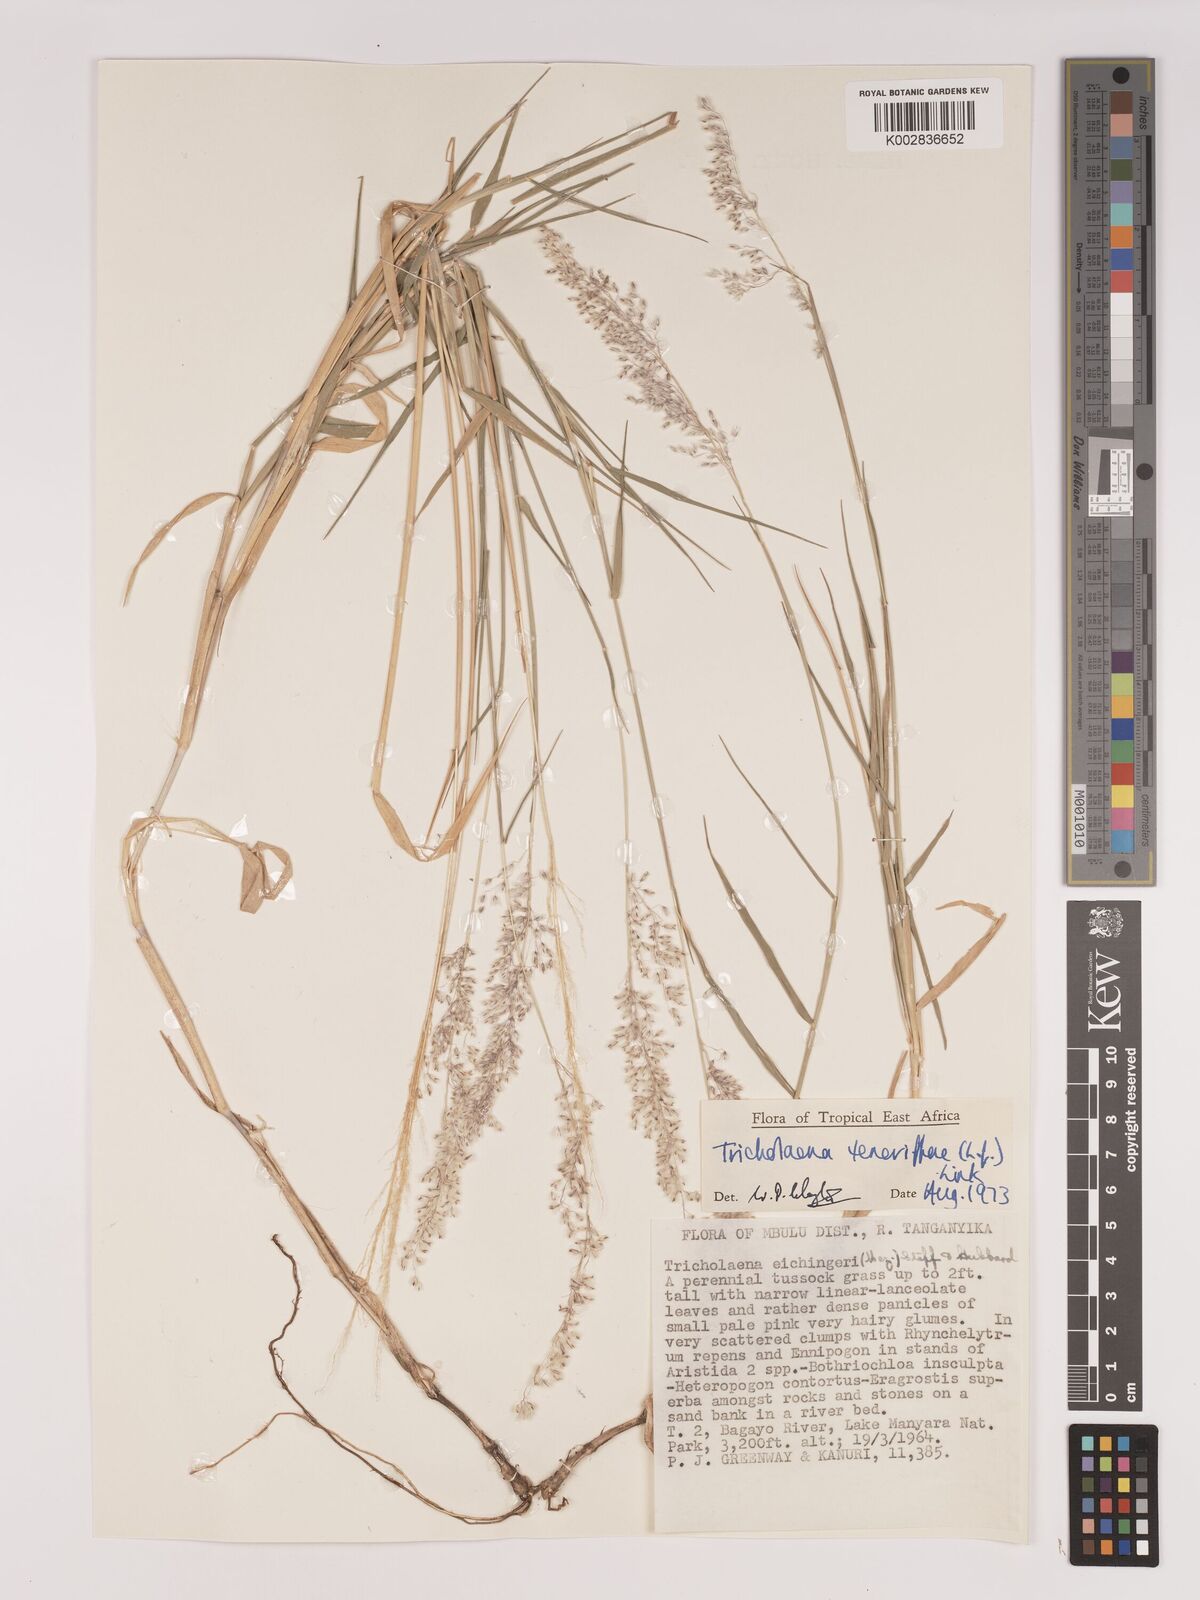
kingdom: Plantae
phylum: Tracheophyta
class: Liliopsida
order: Poales
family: Poaceae
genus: Tricholaena
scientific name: Tricholaena teneriffae
